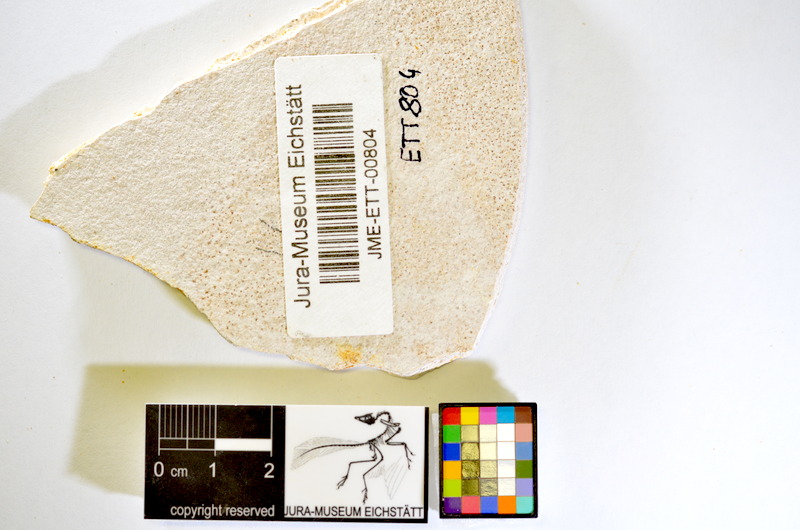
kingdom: Animalia
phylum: Chordata
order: Salmoniformes
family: Orthogonikleithridae
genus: Orthogonikleithrus
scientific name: Orthogonikleithrus hoelli
